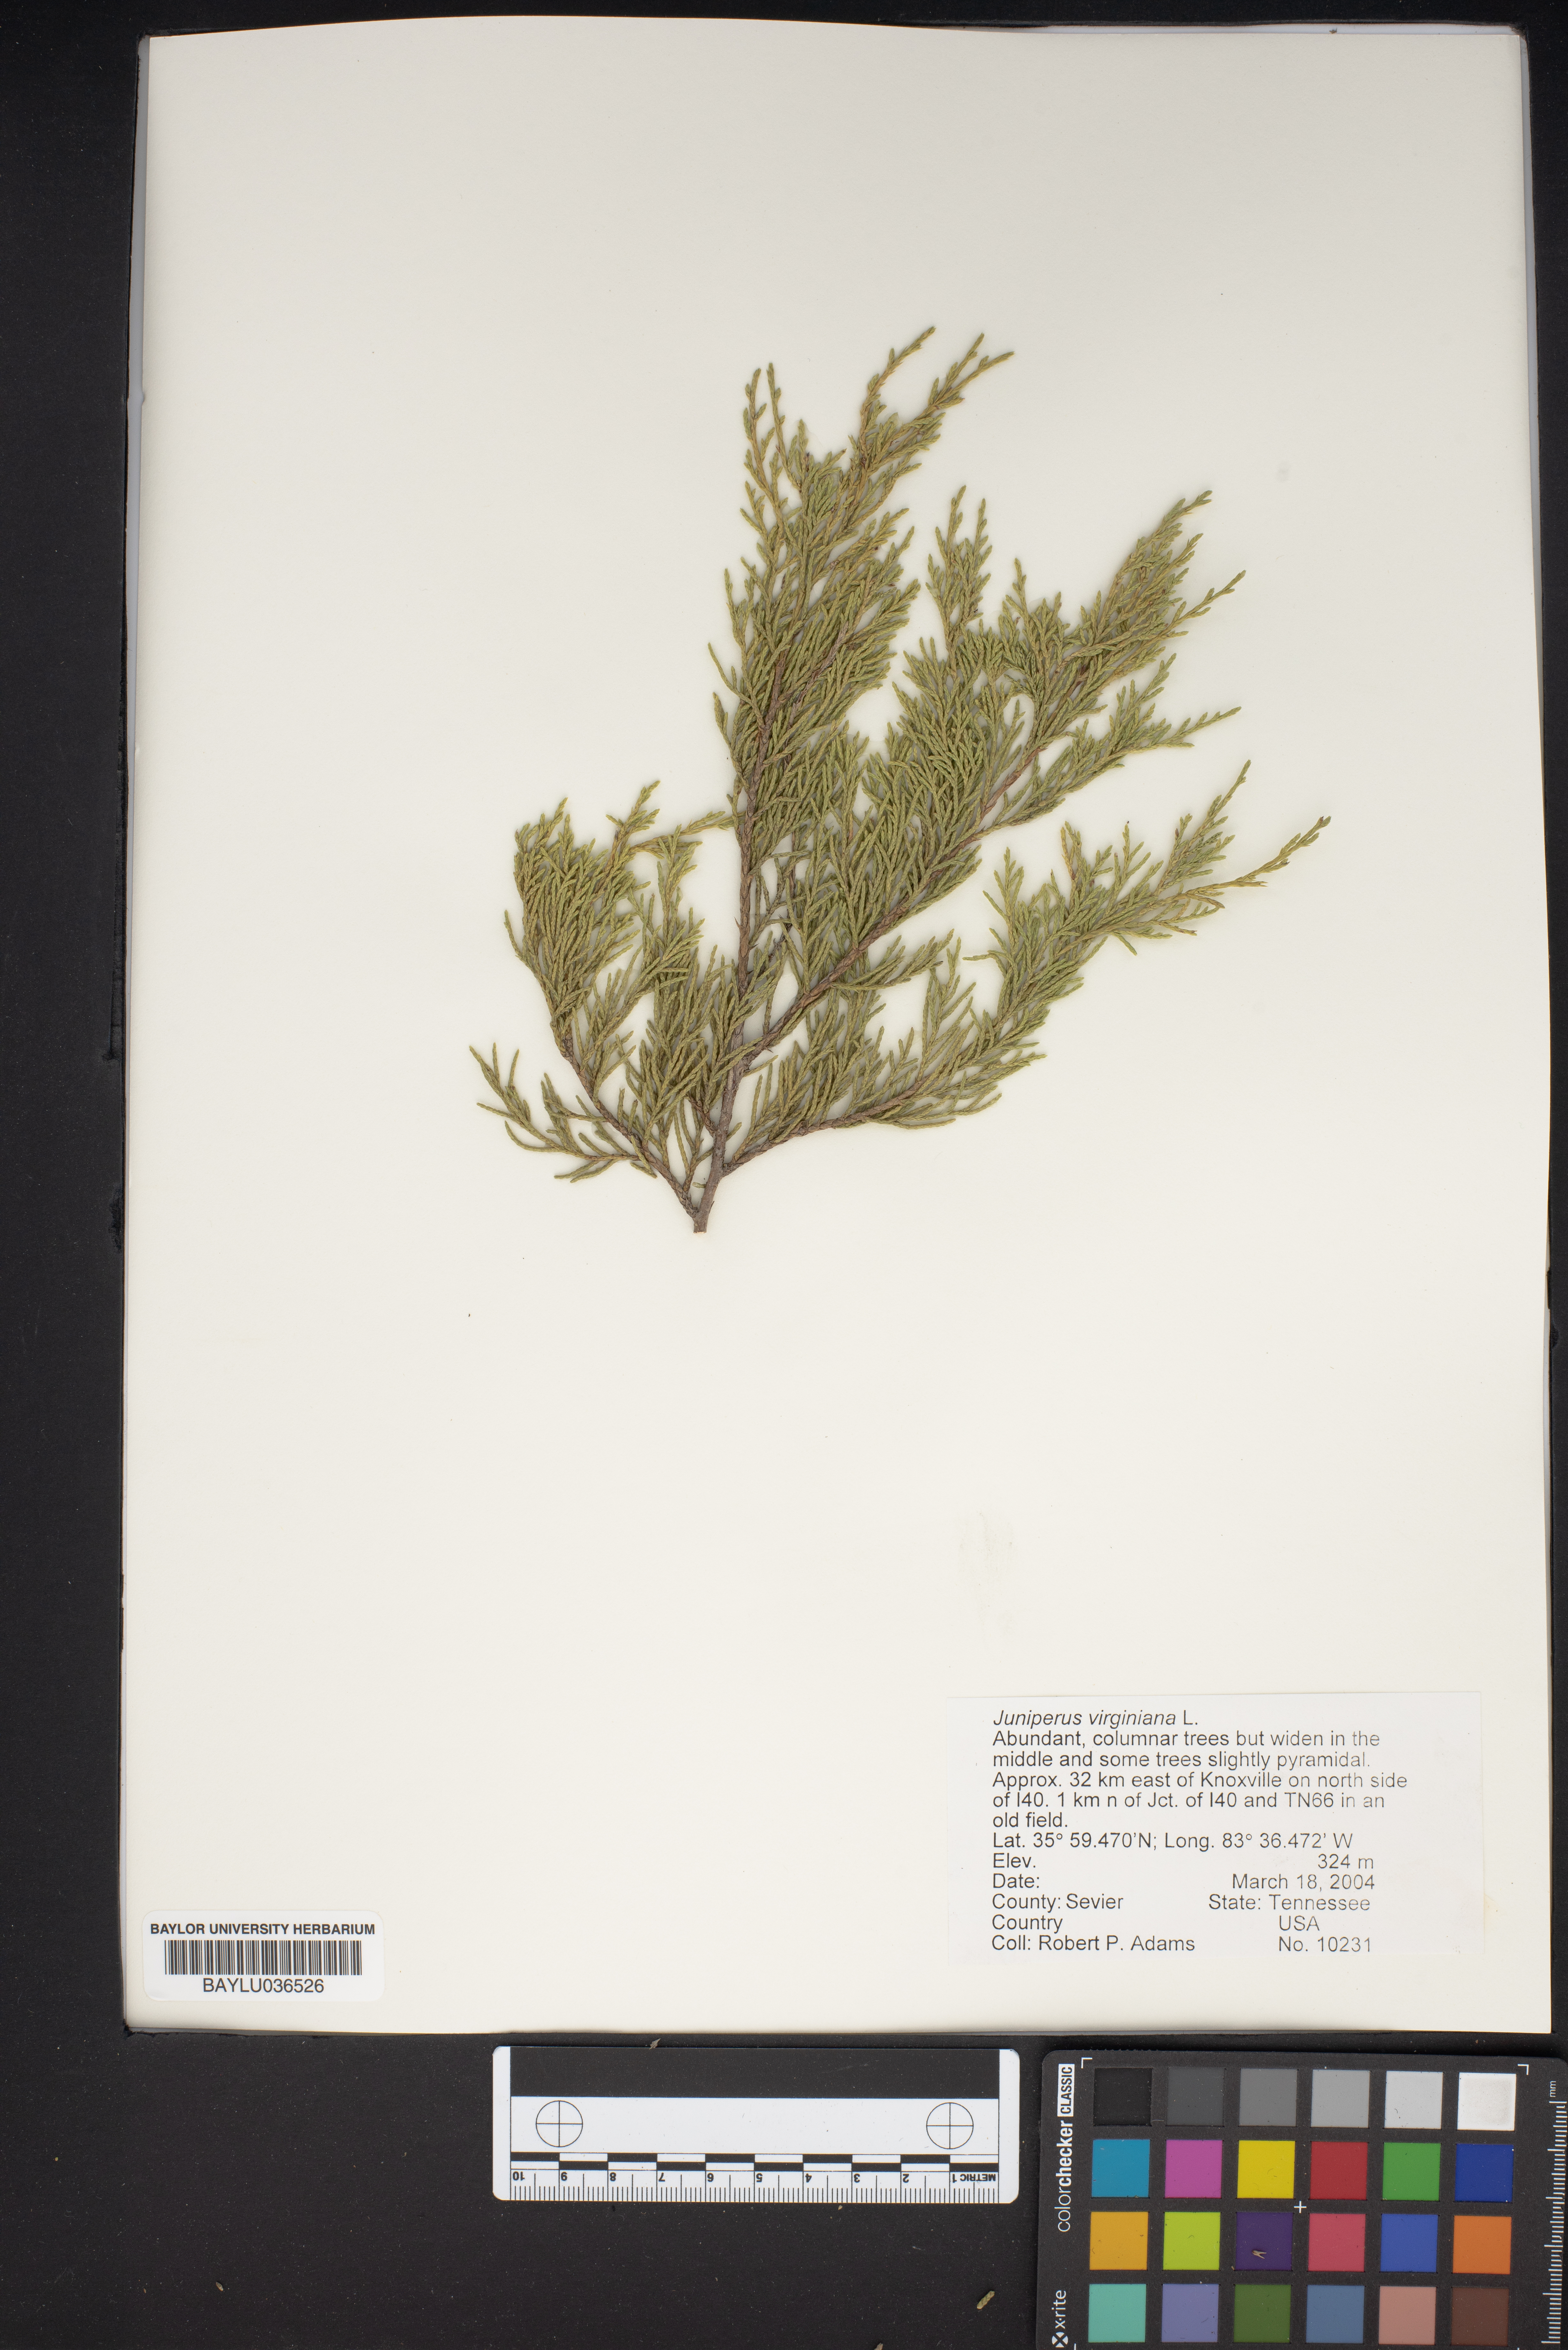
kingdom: Plantae
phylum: Tracheophyta
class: Pinopsida
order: Pinales
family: Cupressaceae
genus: Juniperus
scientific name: Juniperus virginiana
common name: Red juniper
